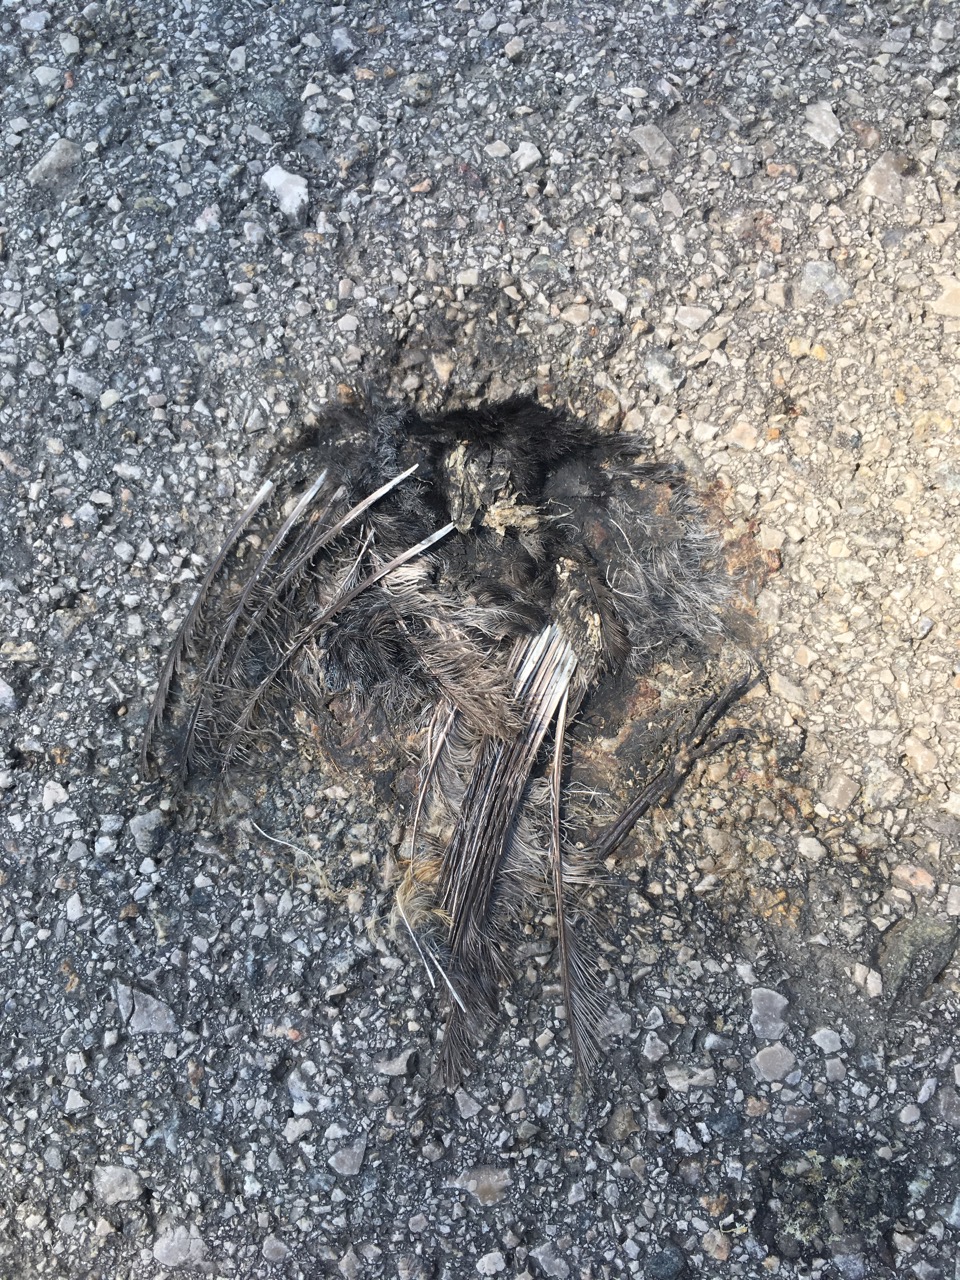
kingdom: Animalia
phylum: Chordata
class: Aves
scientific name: Aves
